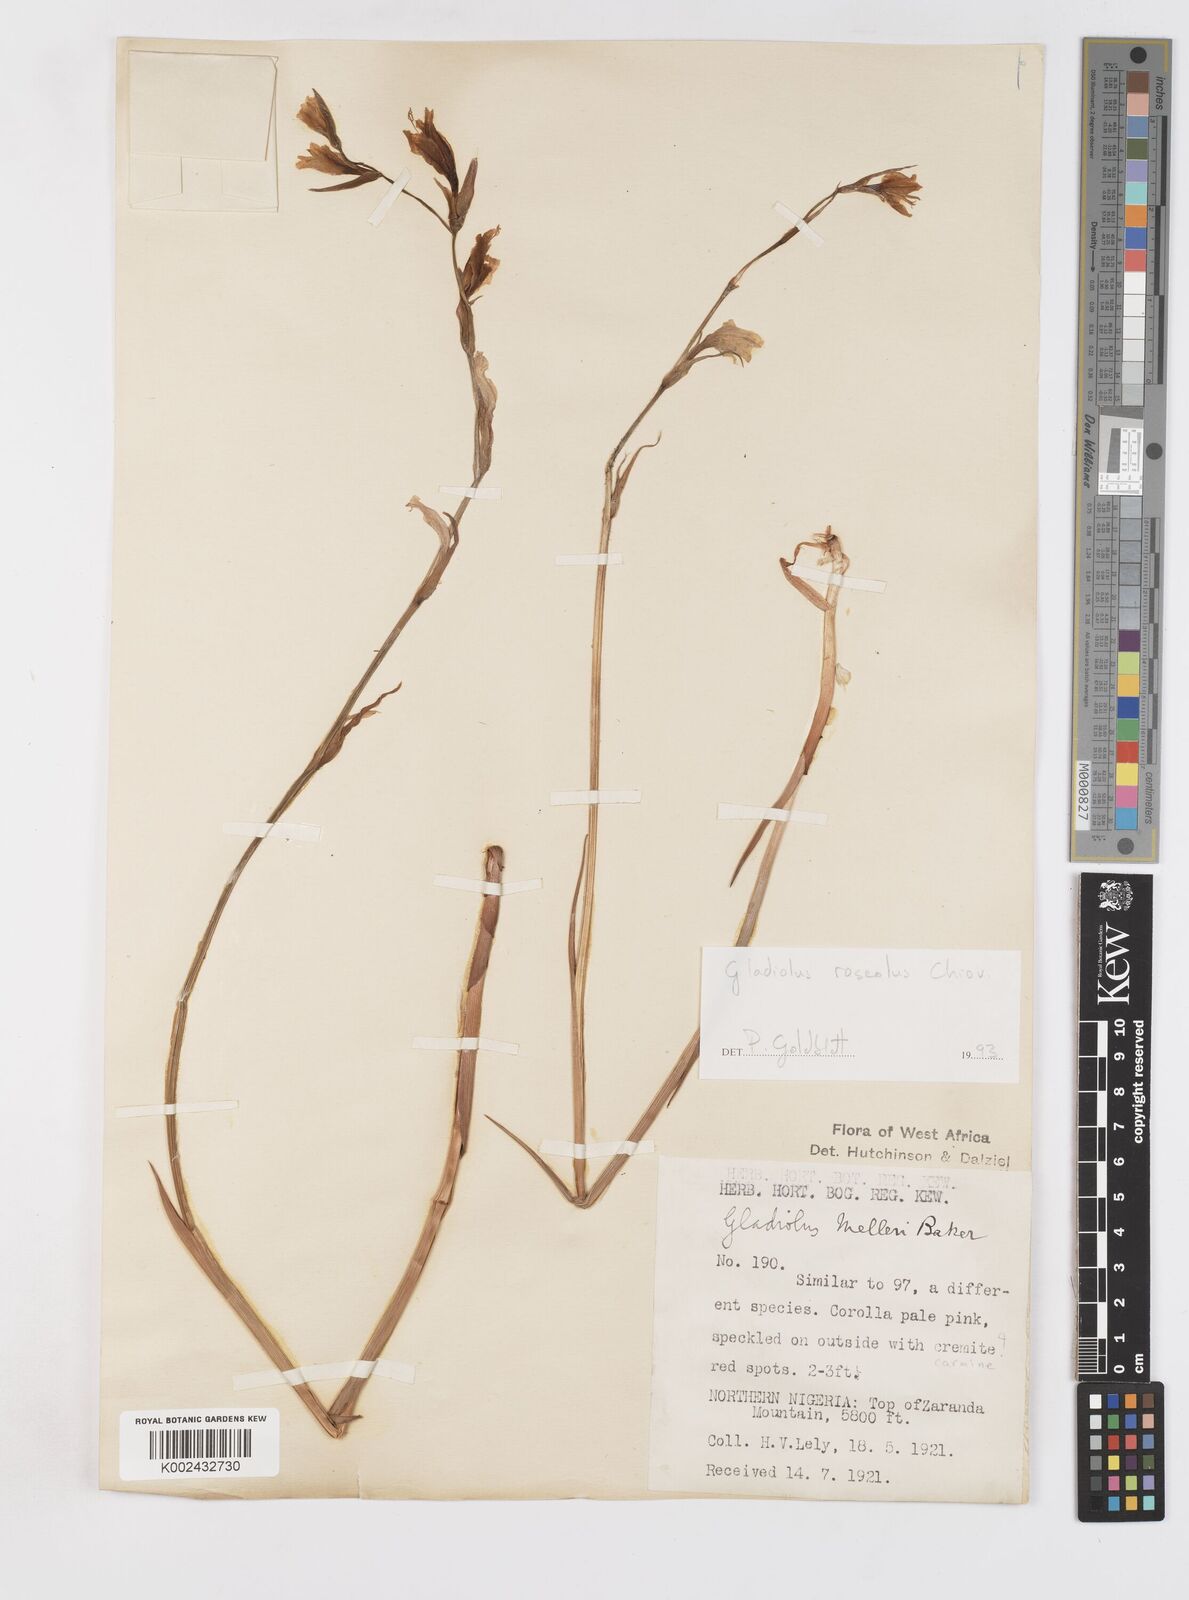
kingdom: Plantae
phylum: Tracheophyta
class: Liliopsida
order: Asparagales
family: Iridaceae
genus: Gladiolus
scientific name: Gladiolus roseolus
